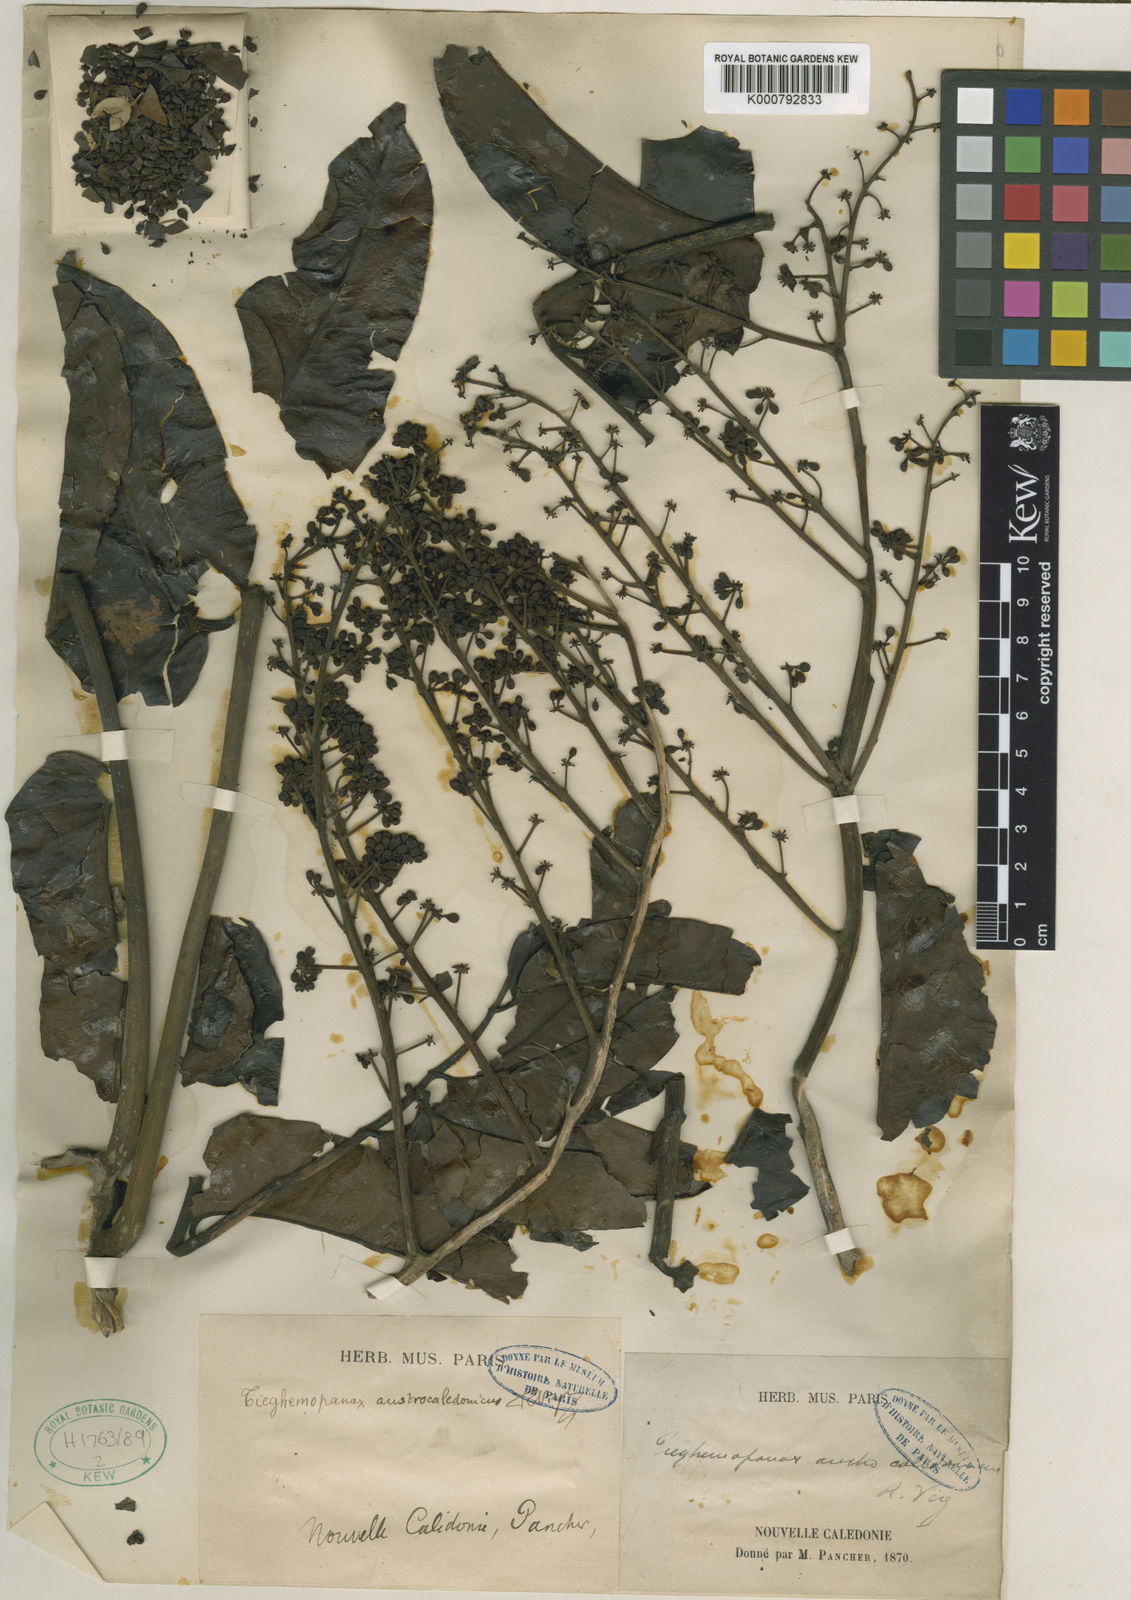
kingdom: Plantae
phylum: Tracheophyta
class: Magnoliopsida
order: Apiales
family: Araliaceae
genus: Polyscias
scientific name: Polyscias crenata
